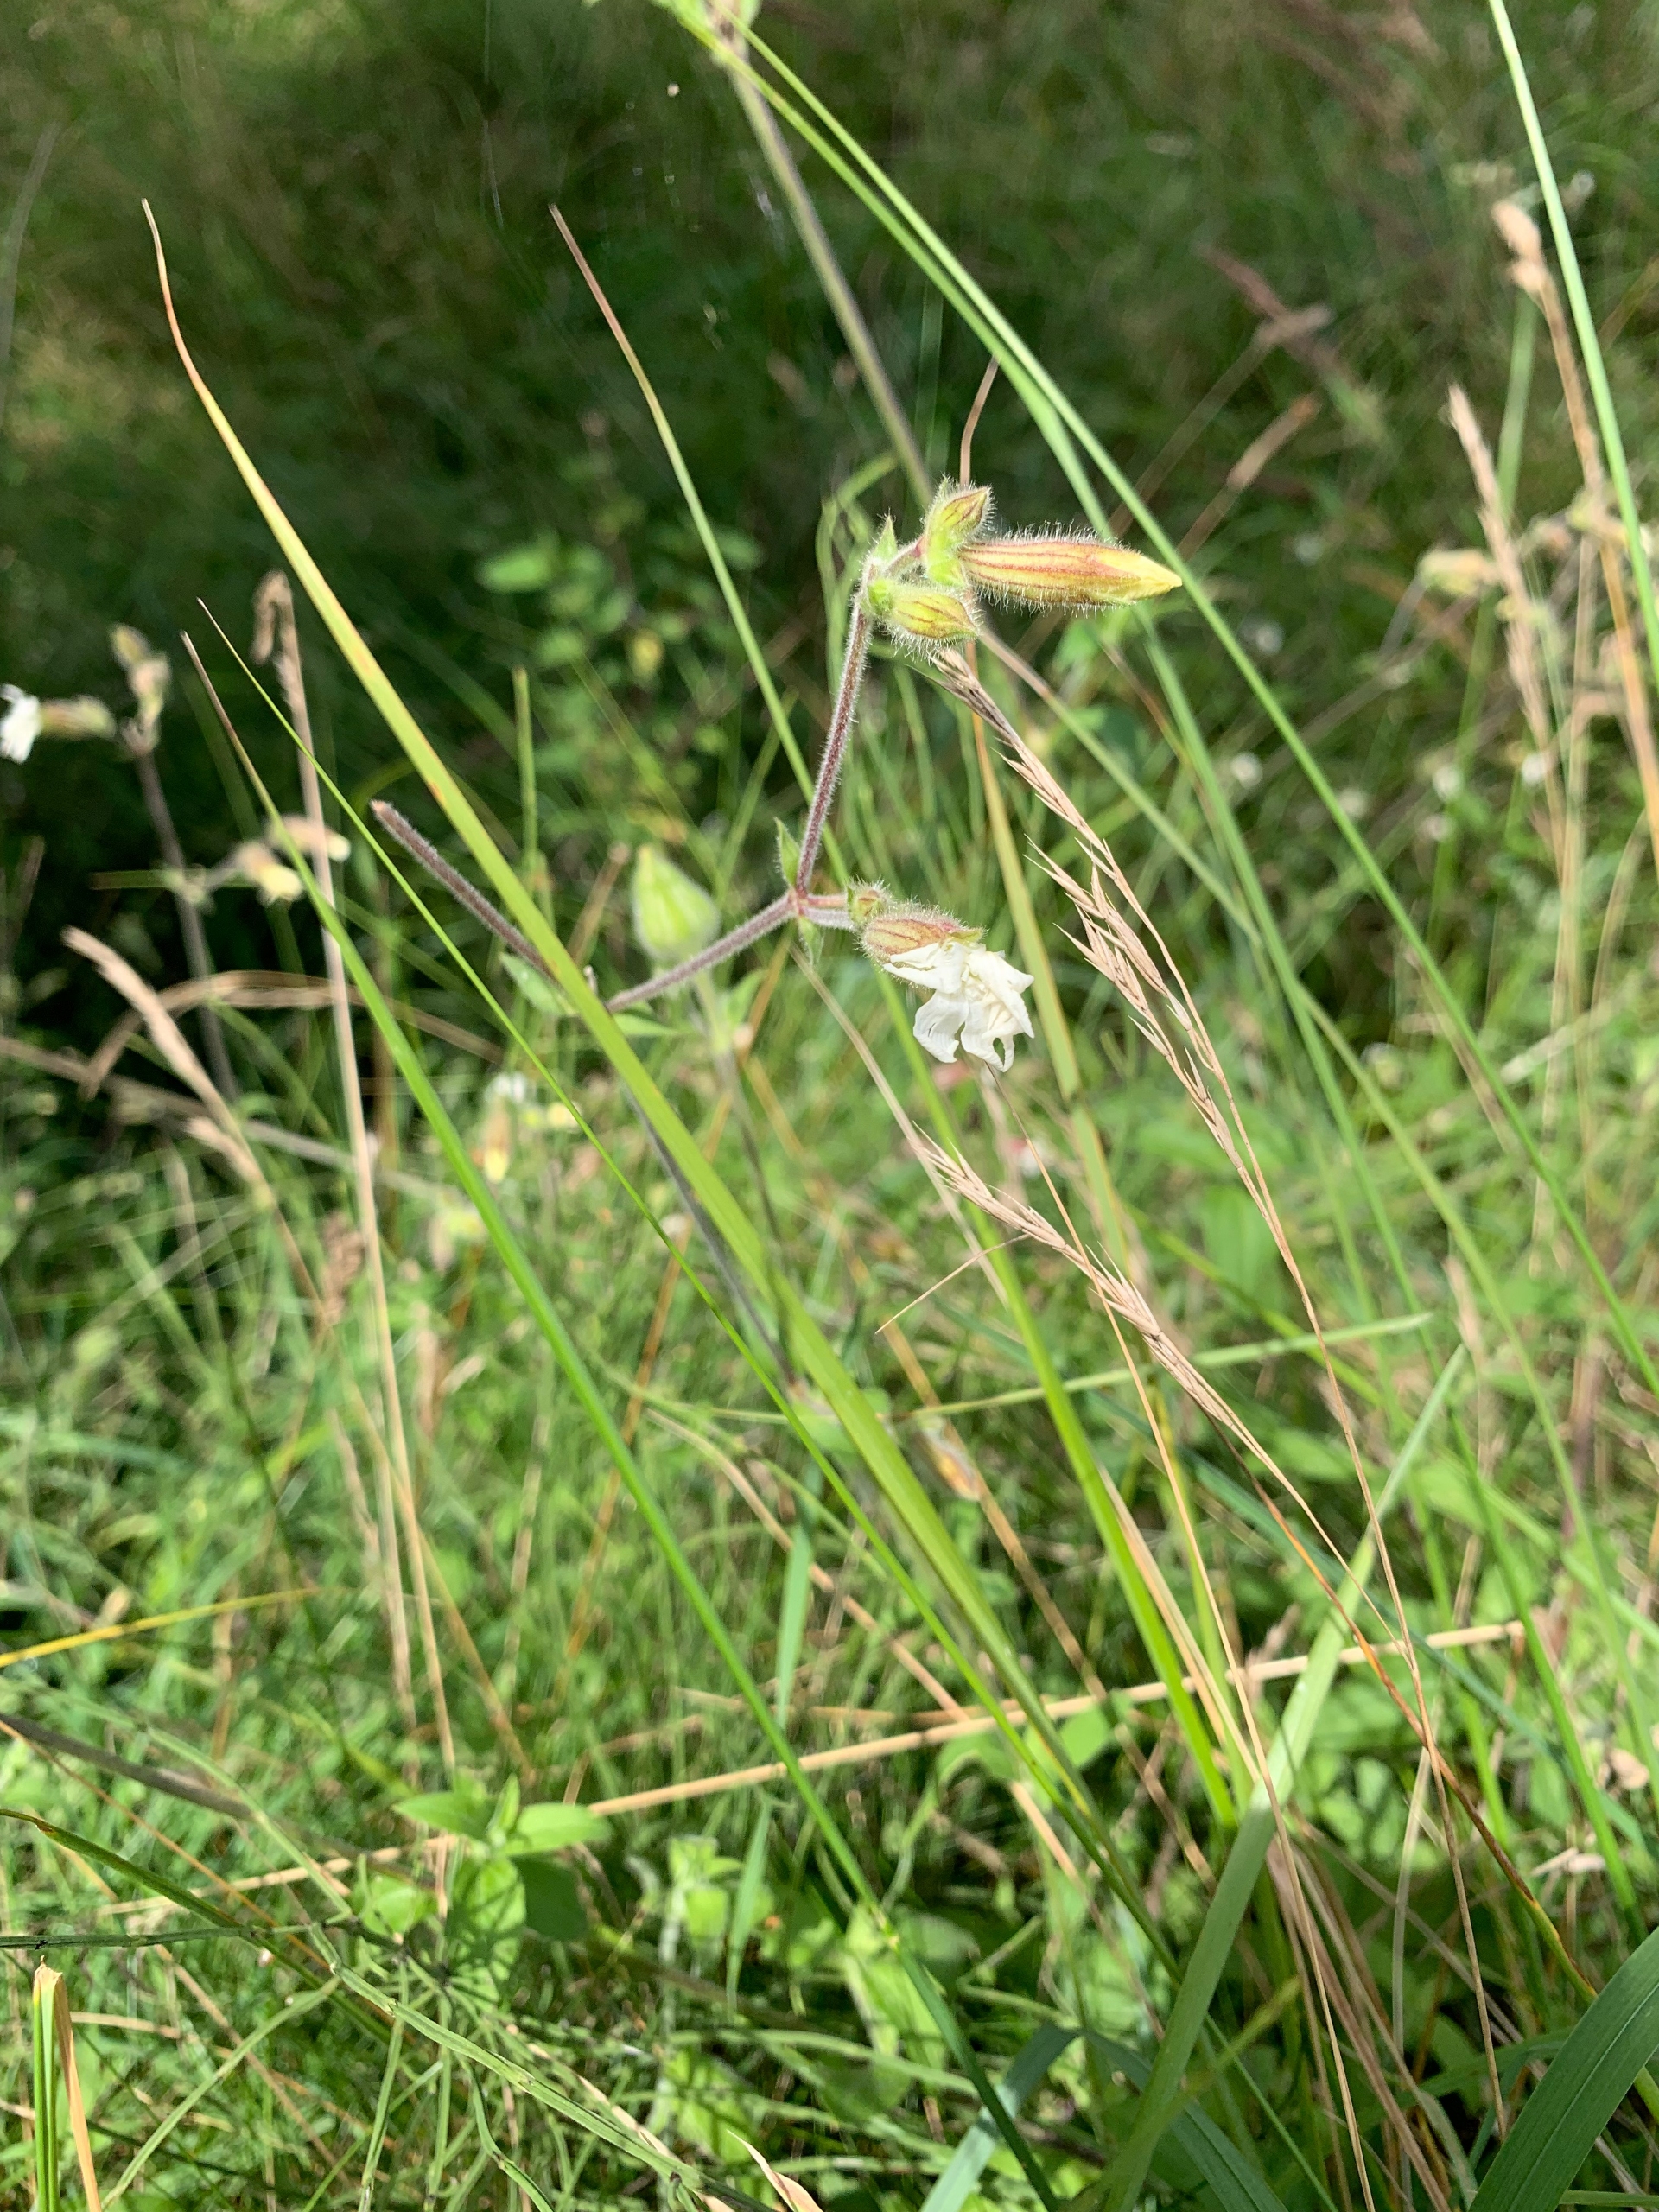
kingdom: Plantae
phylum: Tracheophyta
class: Magnoliopsida
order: Caryophyllales
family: Caryophyllaceae
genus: Silene
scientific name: Silene latifolia
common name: Aftenpragtstjerne
